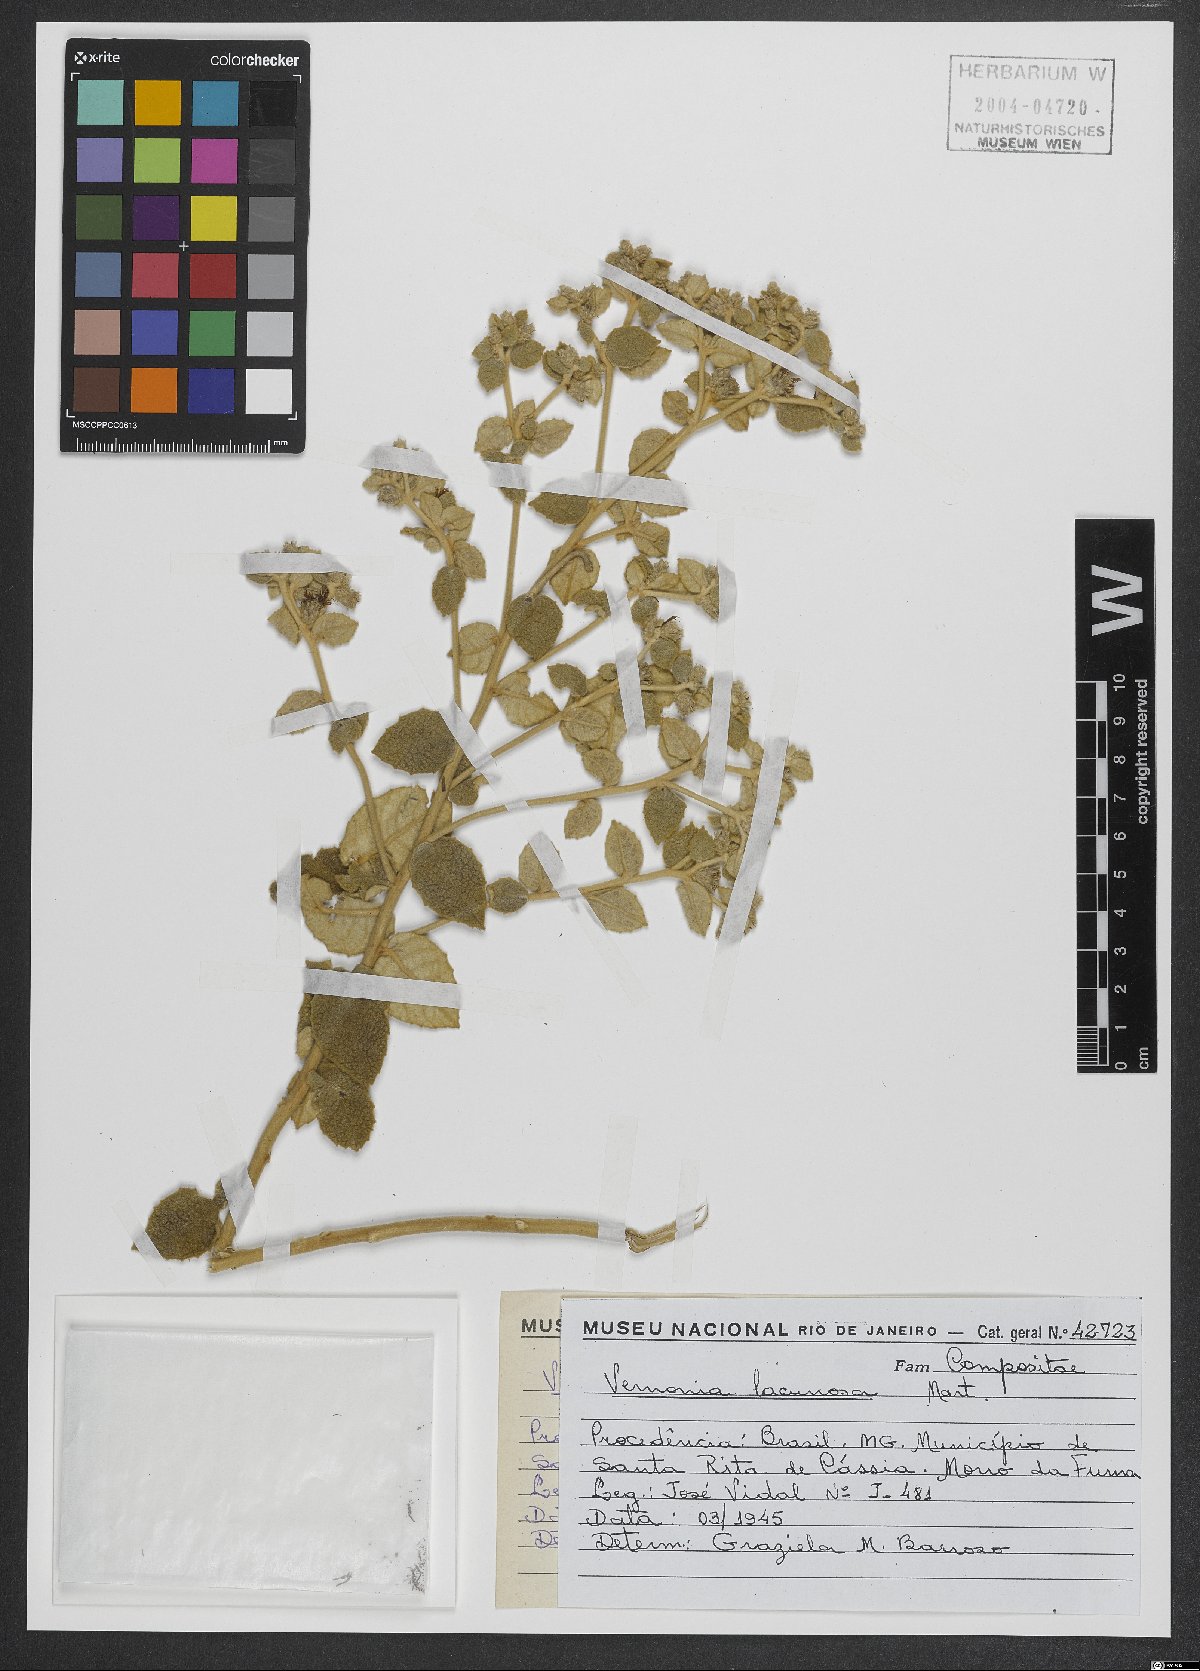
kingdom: Plantae
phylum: Tracheophyta
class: Magnoliopsida
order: Asterales
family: Asteraceae
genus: Lessingianthus
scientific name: Lessingianthus lacunosus
